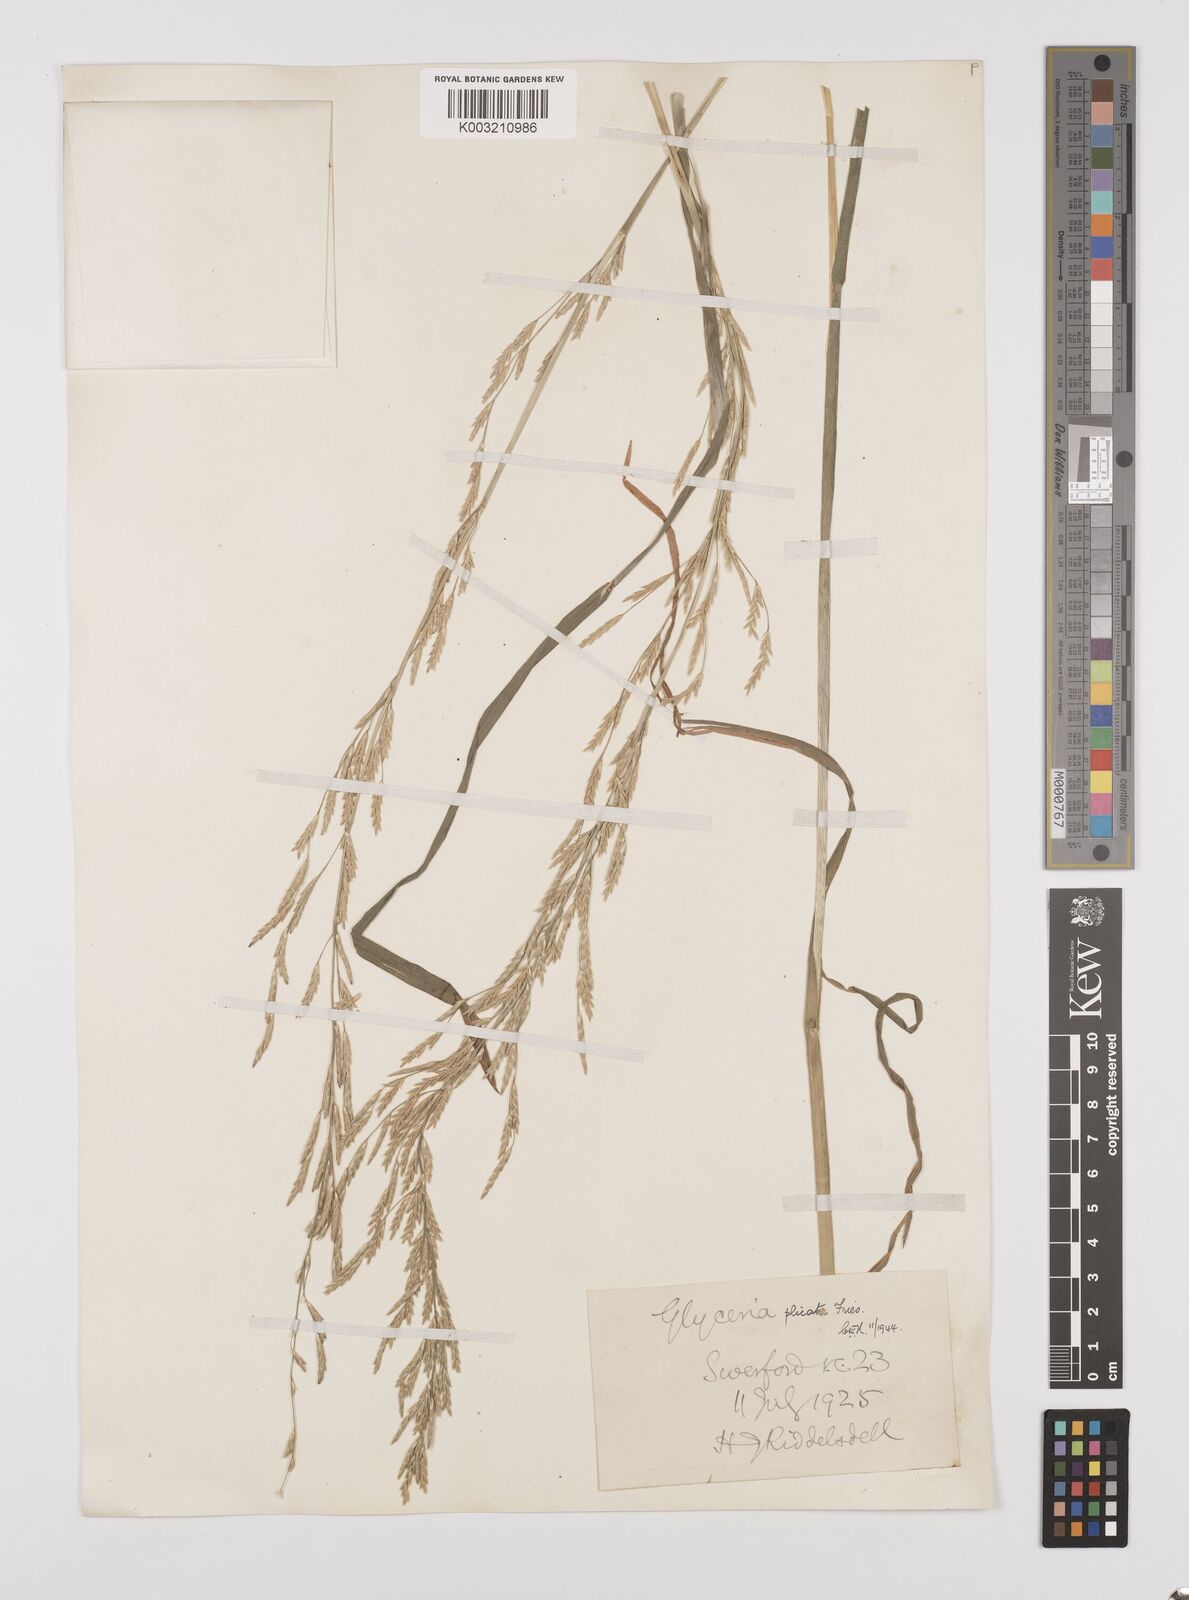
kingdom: Plantae
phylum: Tracheophyta
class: Liliopsida
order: Poales
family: Poaceae
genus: Glyceria
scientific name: Glyceria notata
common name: Plicate sweet-grass
